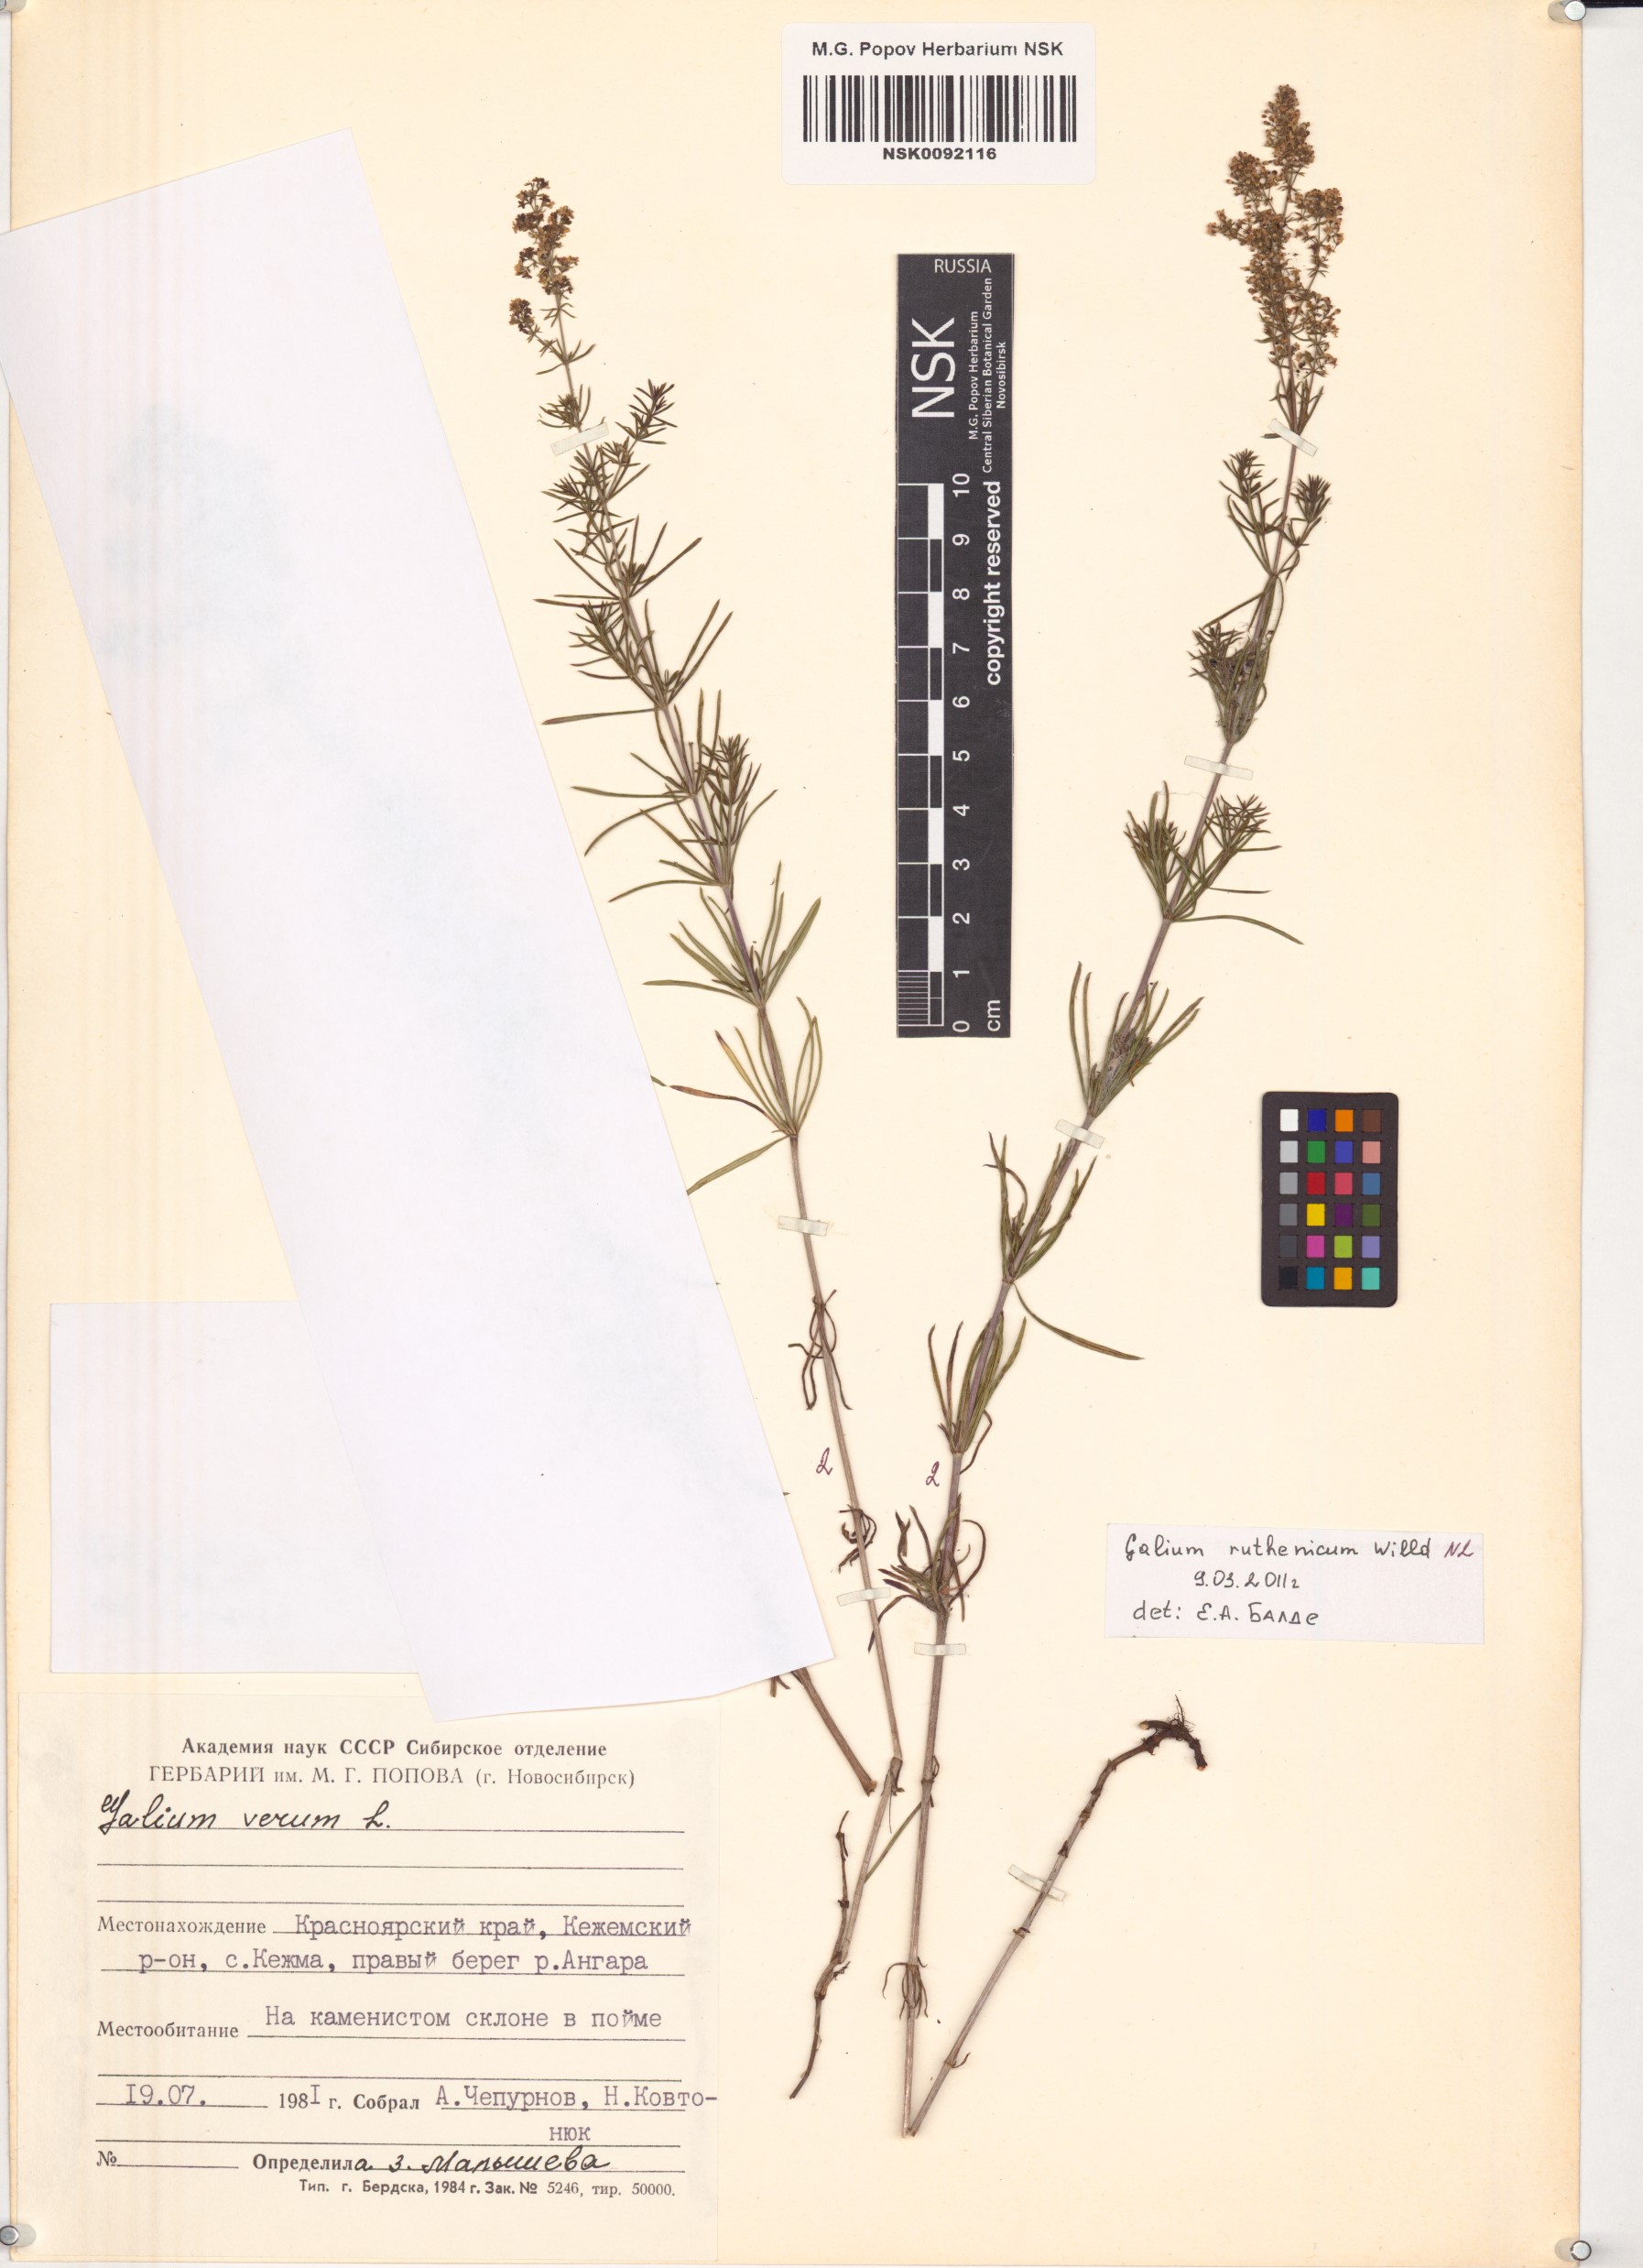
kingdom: Plantae
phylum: Tracheophyta
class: Magnoliopsida
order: Gentianales
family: Rubiaceae
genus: Galium
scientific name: Galium verum
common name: Lady's bedstraw
